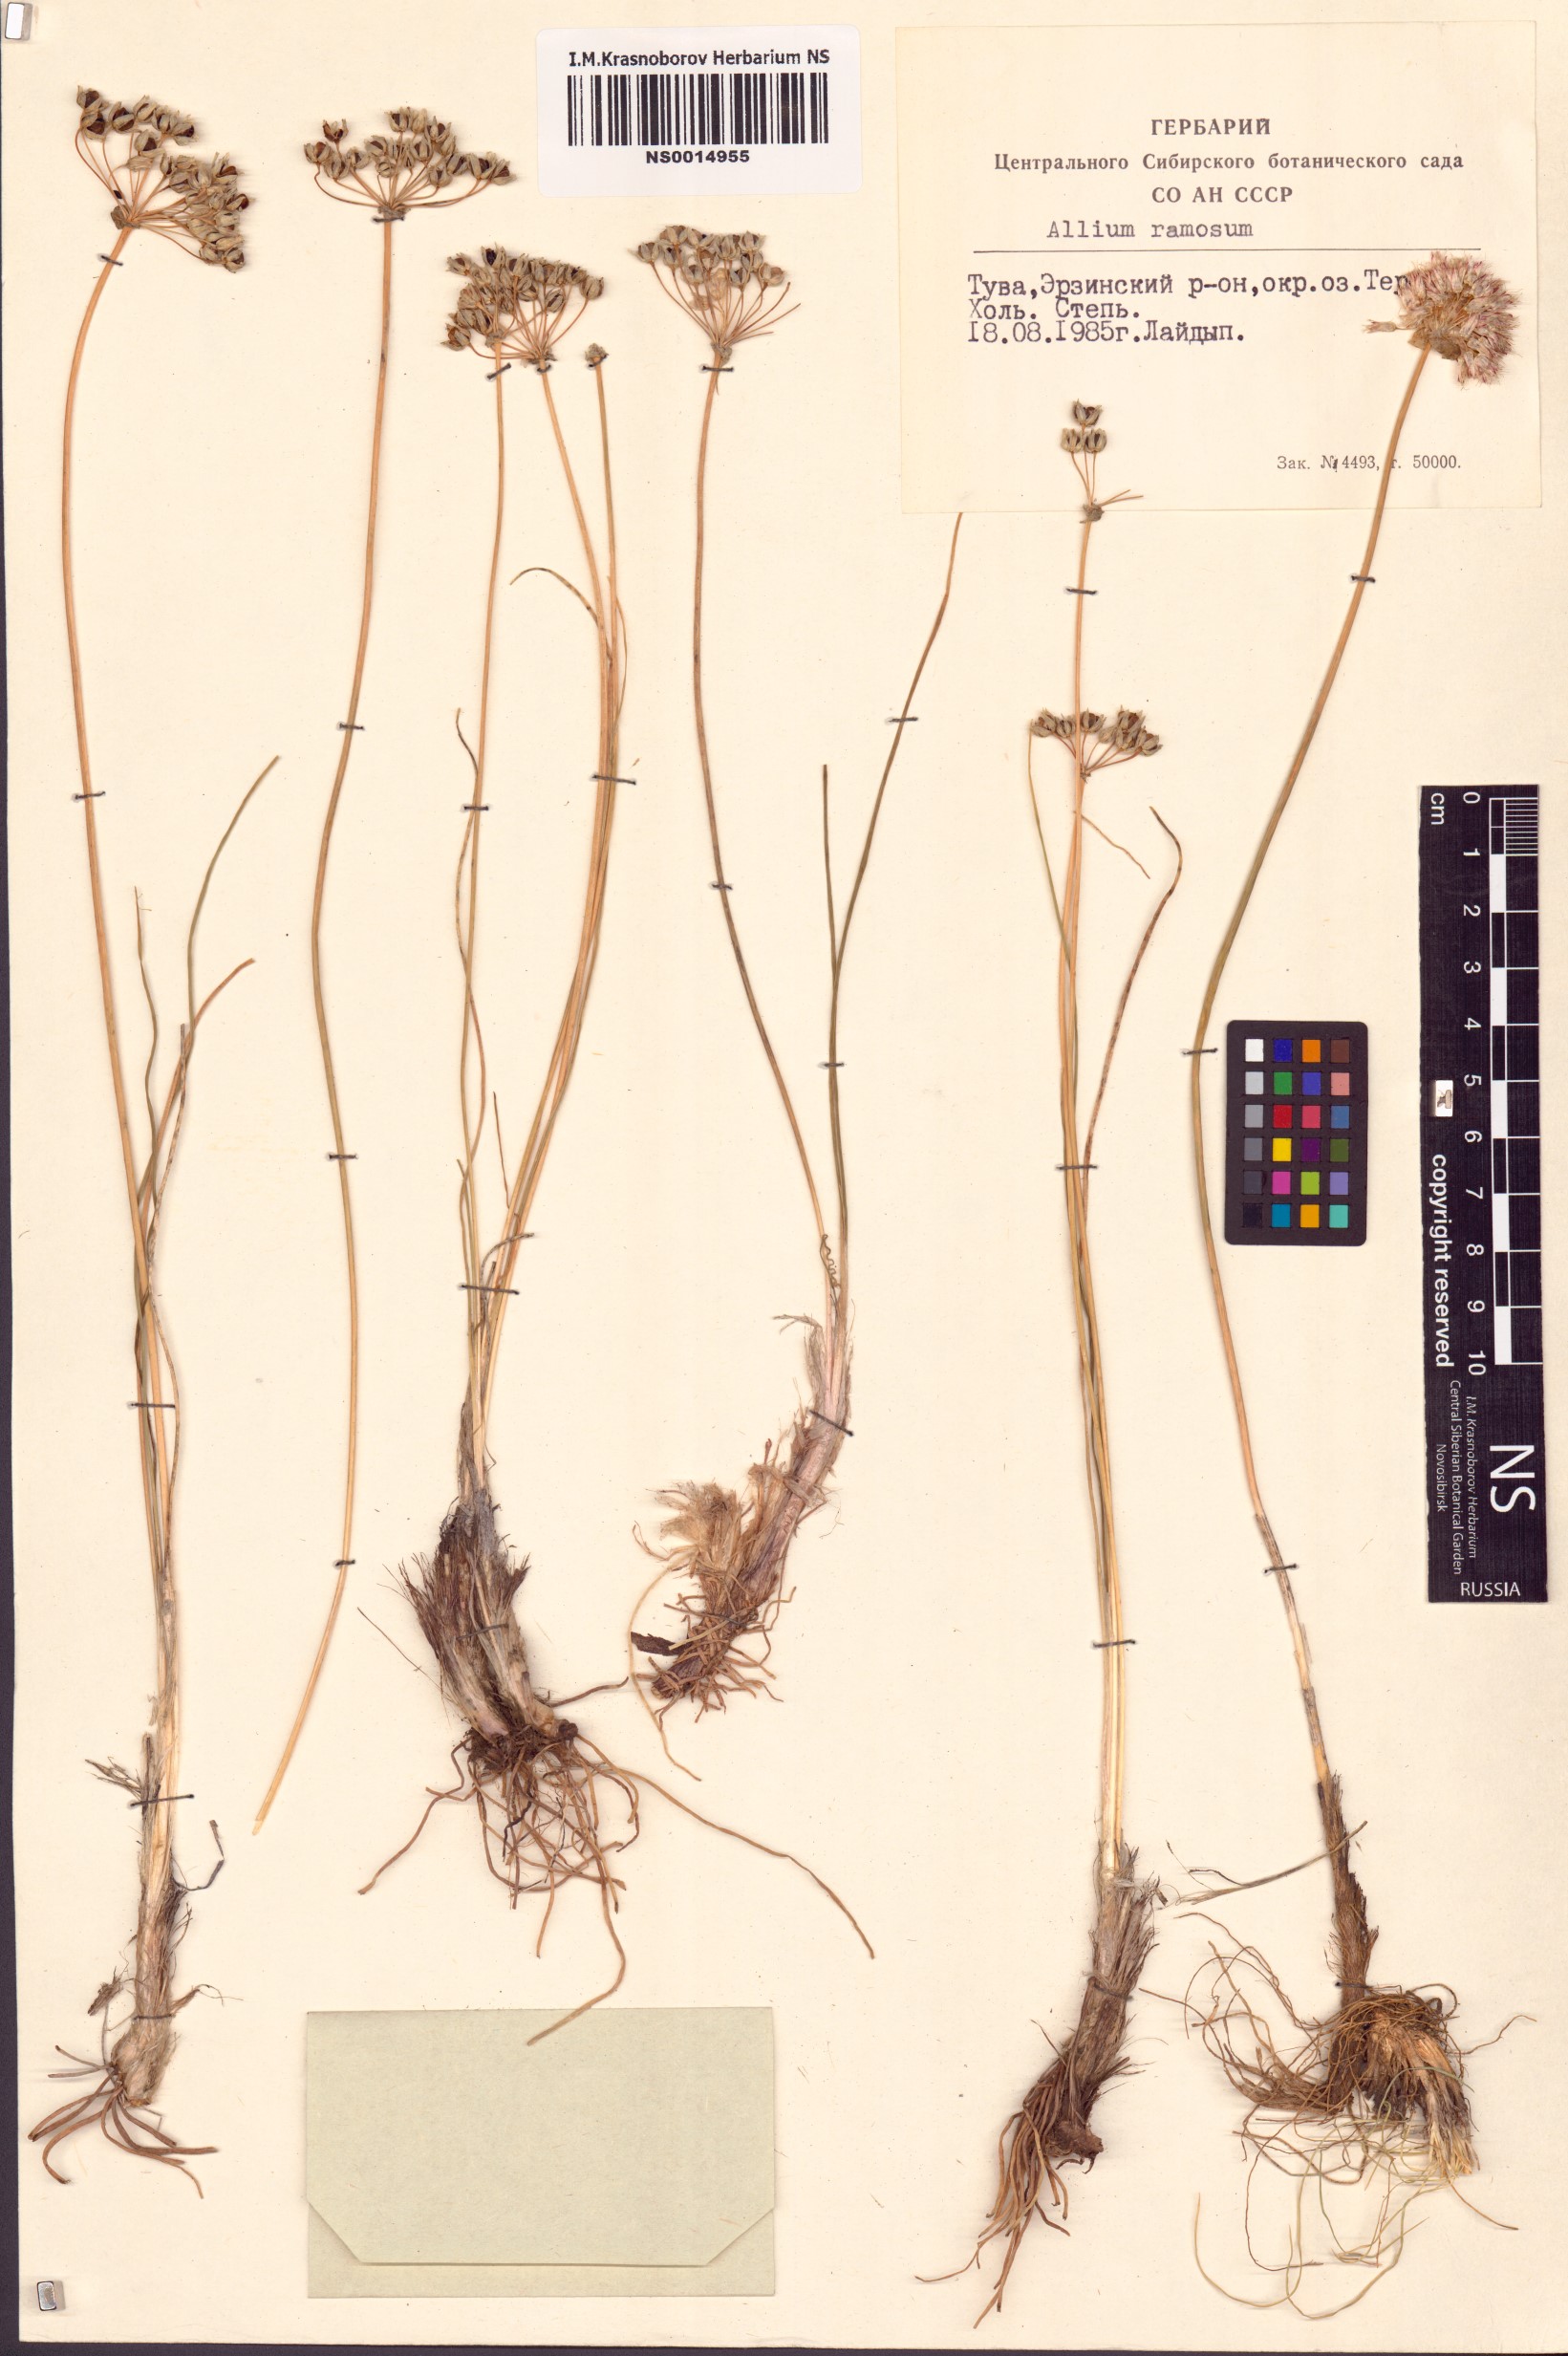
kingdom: Plantae
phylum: Tracheophyta
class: Liliopsida
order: Asparagales
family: Amaryllidaceae
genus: Allium
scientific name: Allium ramosum
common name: Fragrant garlic
